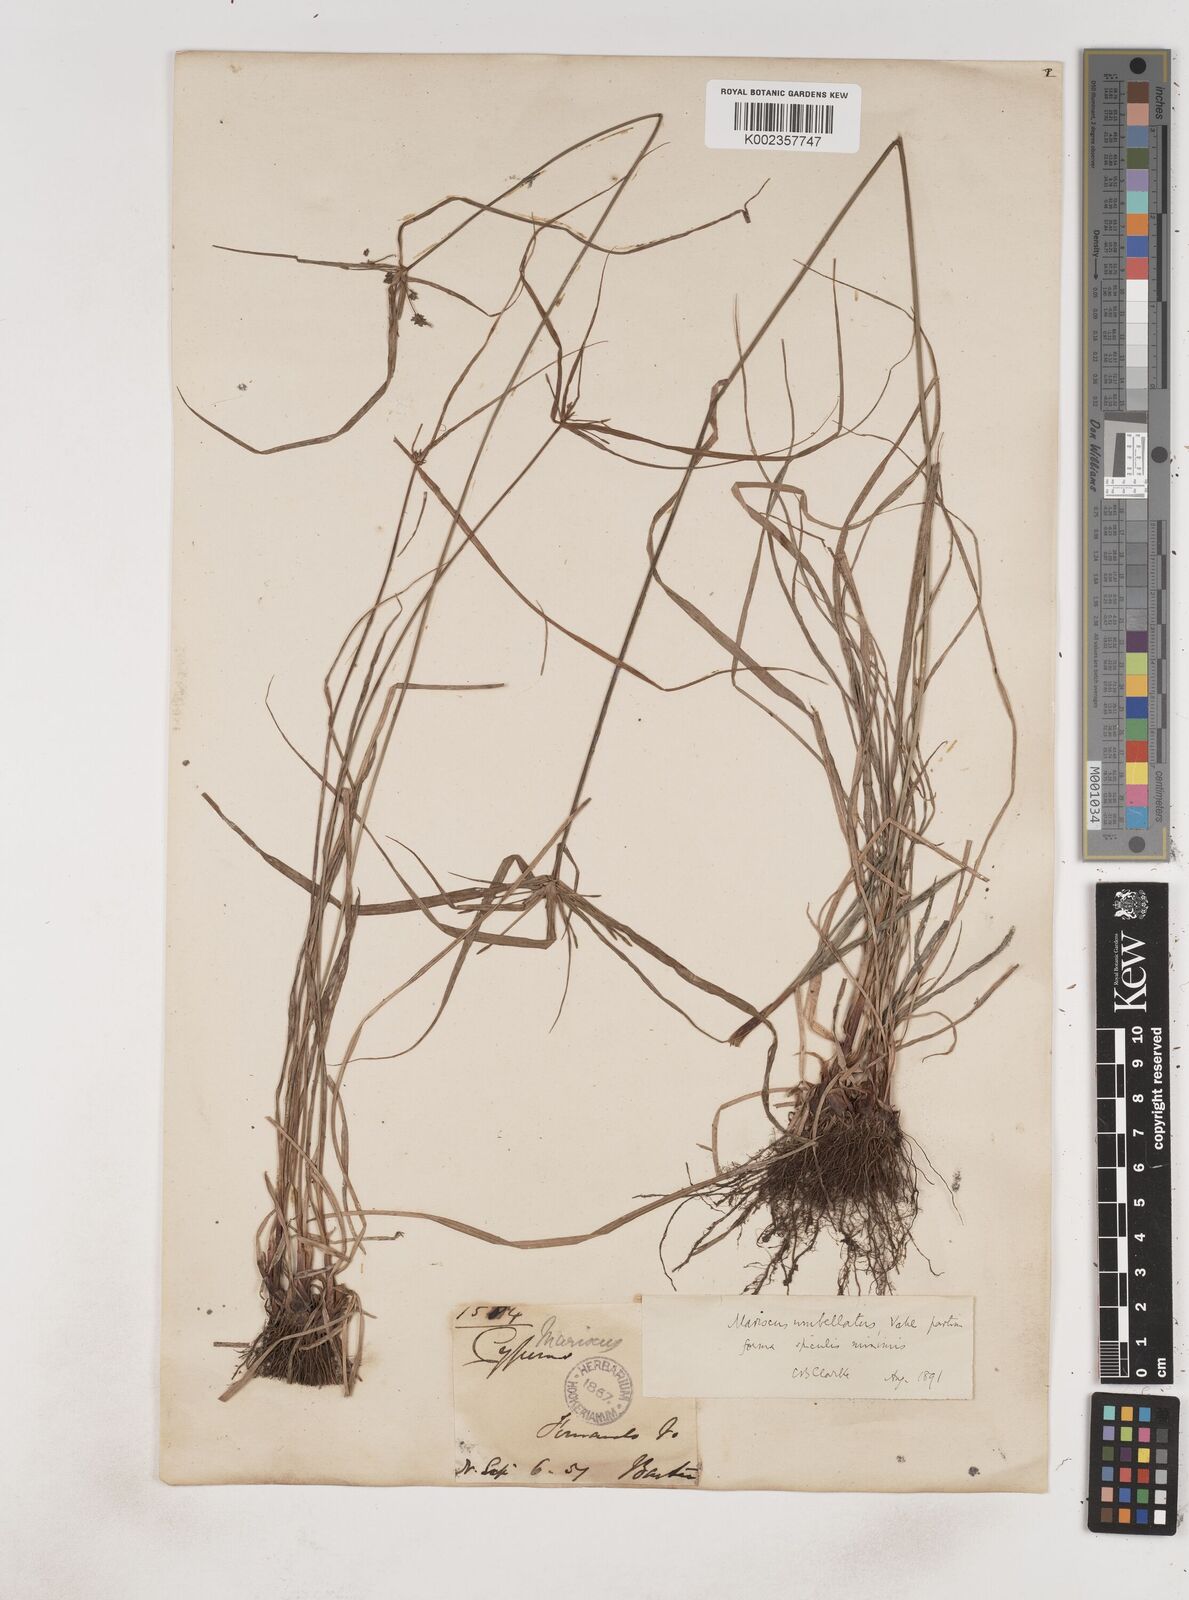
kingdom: Plantae
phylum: Tracheophyta
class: Liliopsida
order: Poales
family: Cyperaceae
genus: Cyperus
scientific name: Cyperus sublimis
